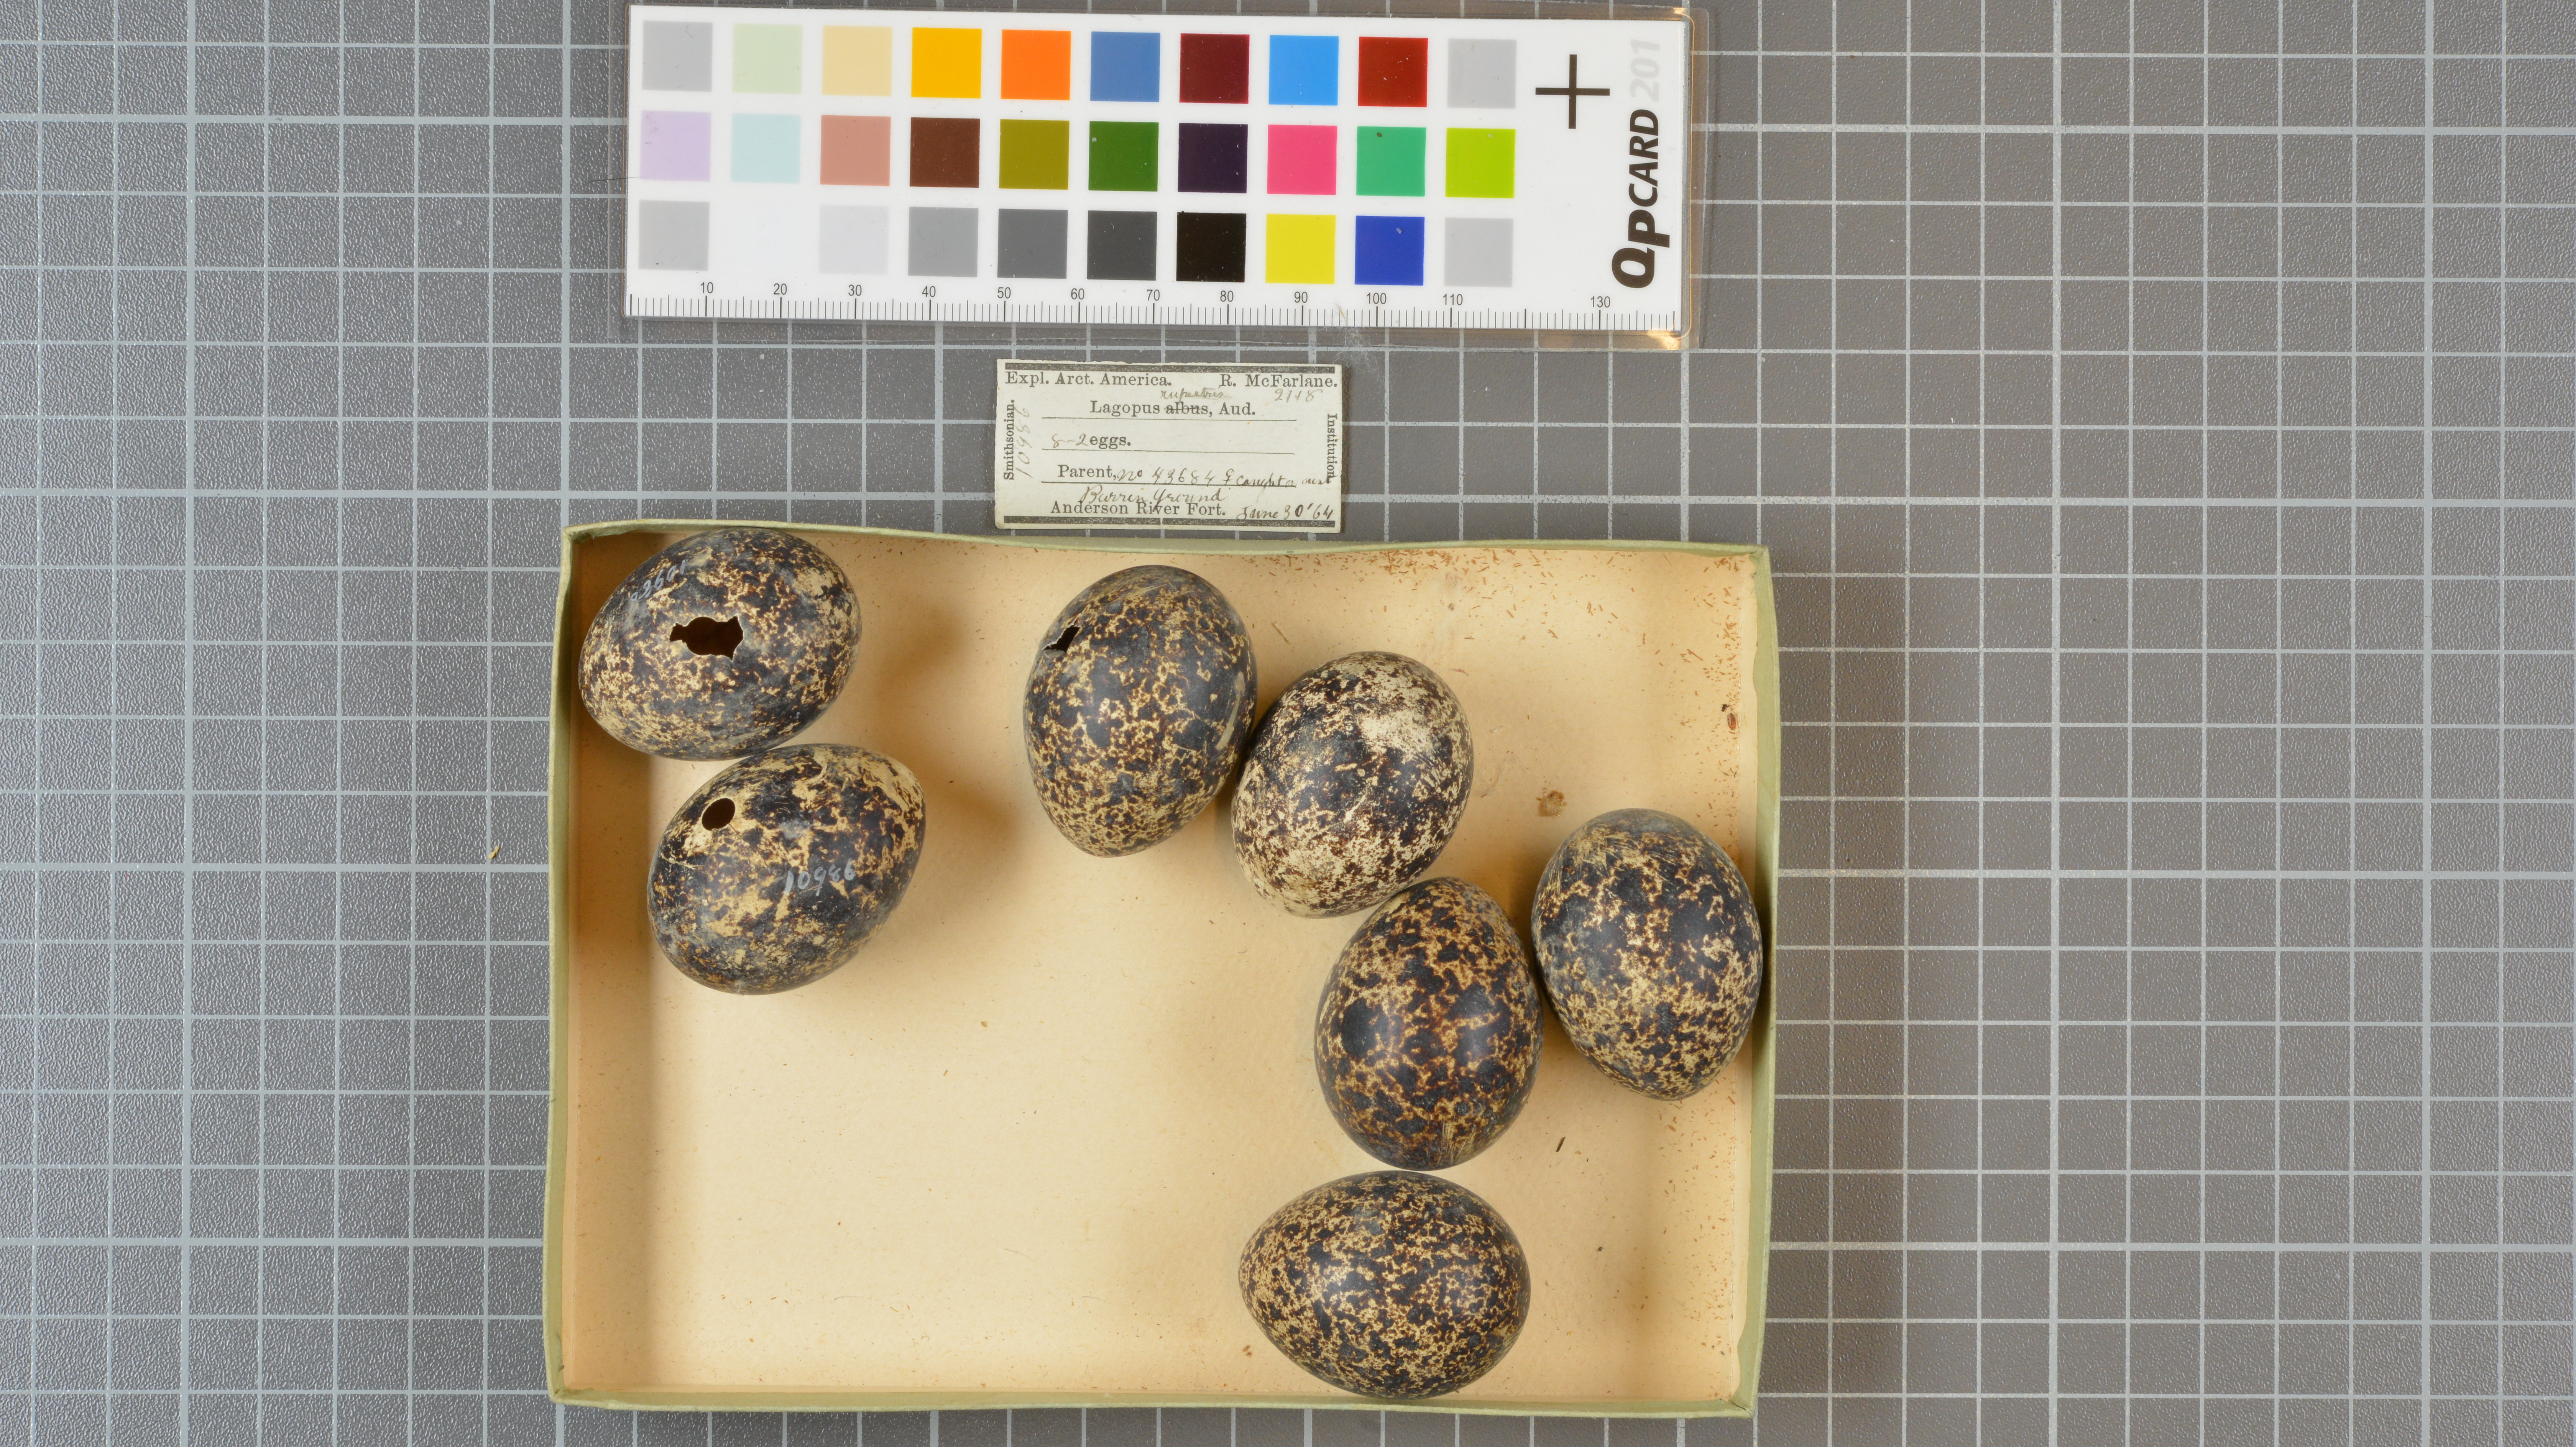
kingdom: Animalia
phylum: Chordata
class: Aves
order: Galliformes
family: Phasianidae
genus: Lagopus
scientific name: Lagopus muta
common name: Rock ptarmigan
